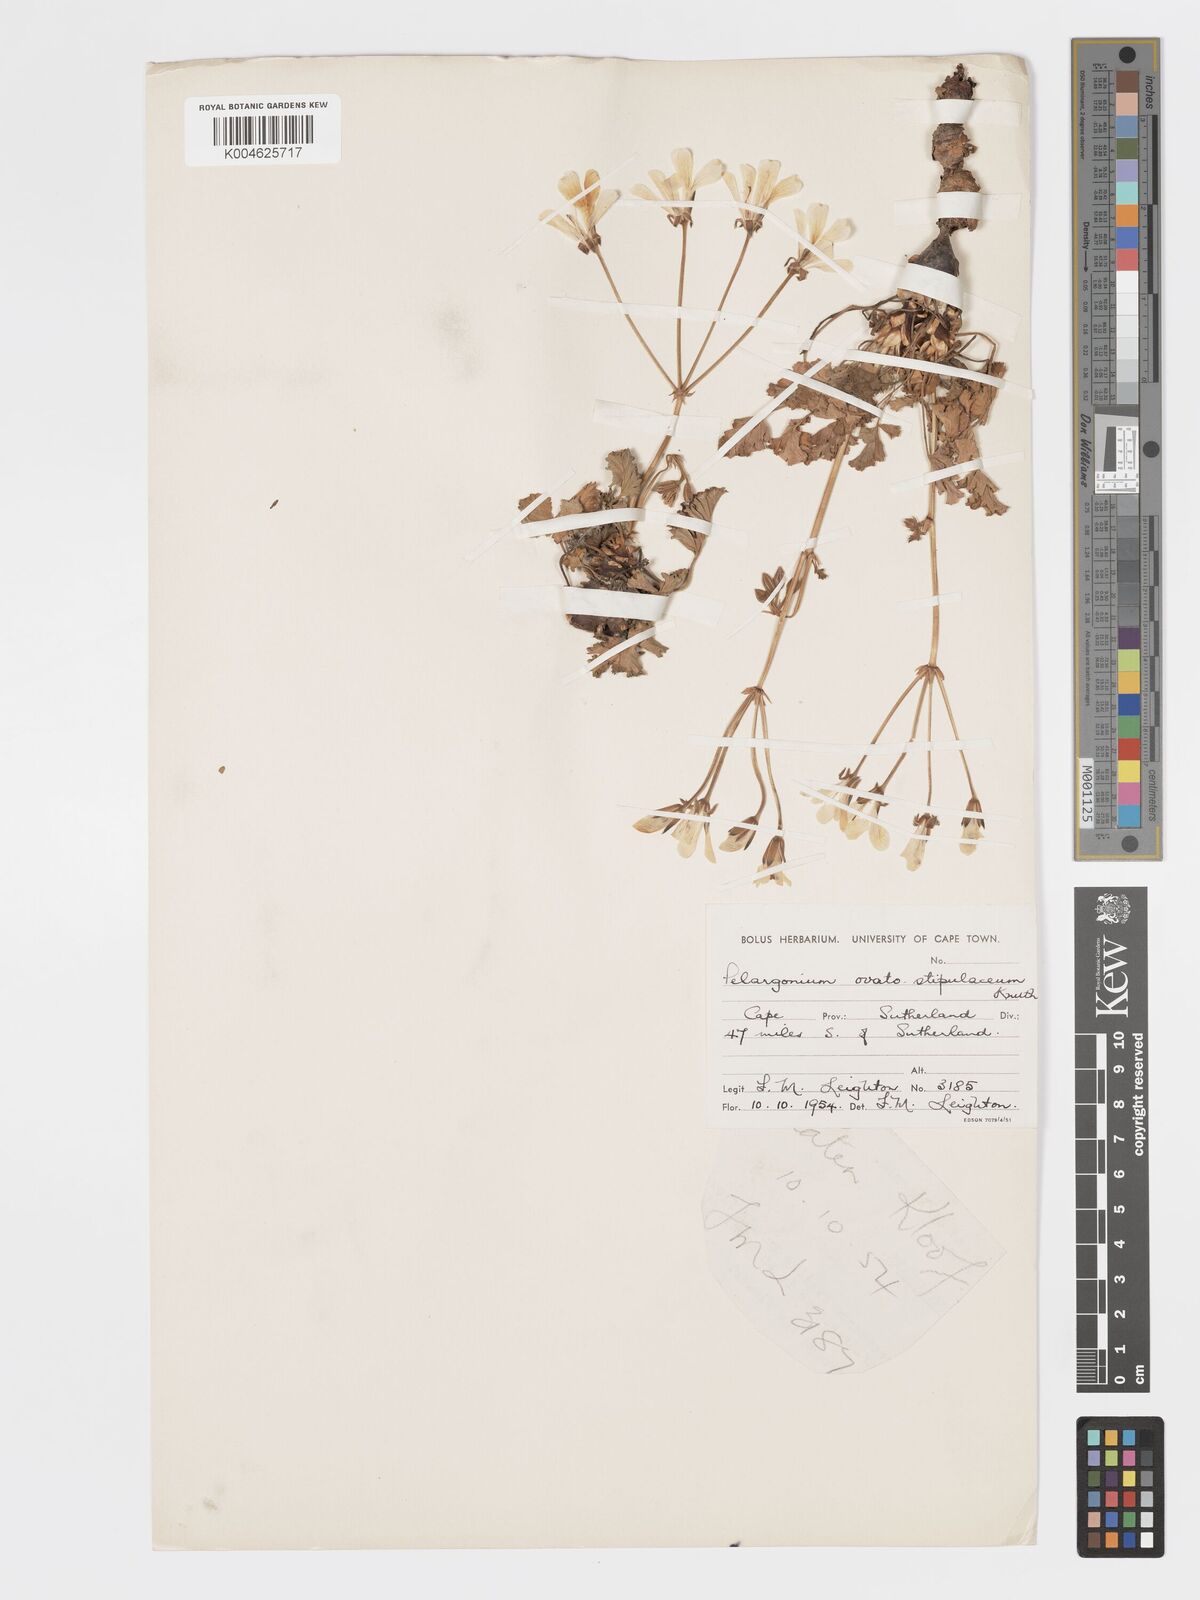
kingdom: Plantae
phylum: Tracheophyta
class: Magnoliopsida
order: Geraniales
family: Geraniaceae
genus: Pelargonium
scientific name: Pelargonium stipulaceum
